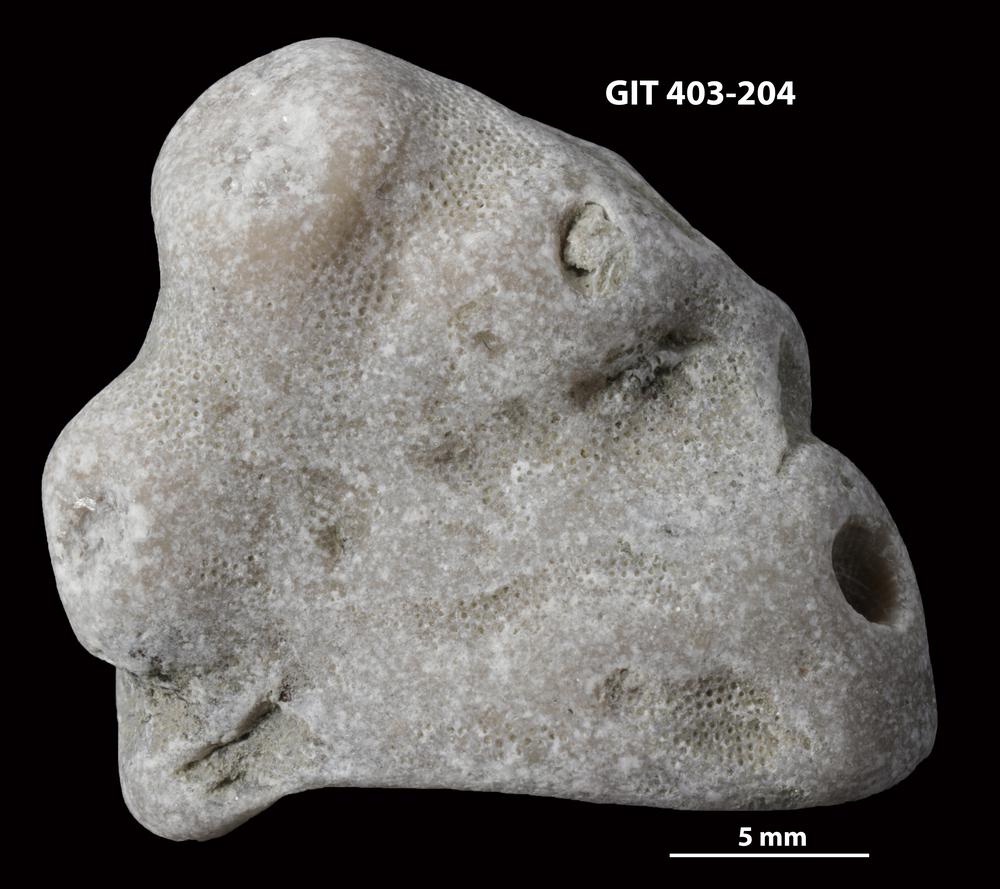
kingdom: Animalia
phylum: Bryozoa
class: Stenolaemata
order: Cystoporida
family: Fistuliporidae
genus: Fistulipora
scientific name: Fistulipora przhidolensis
